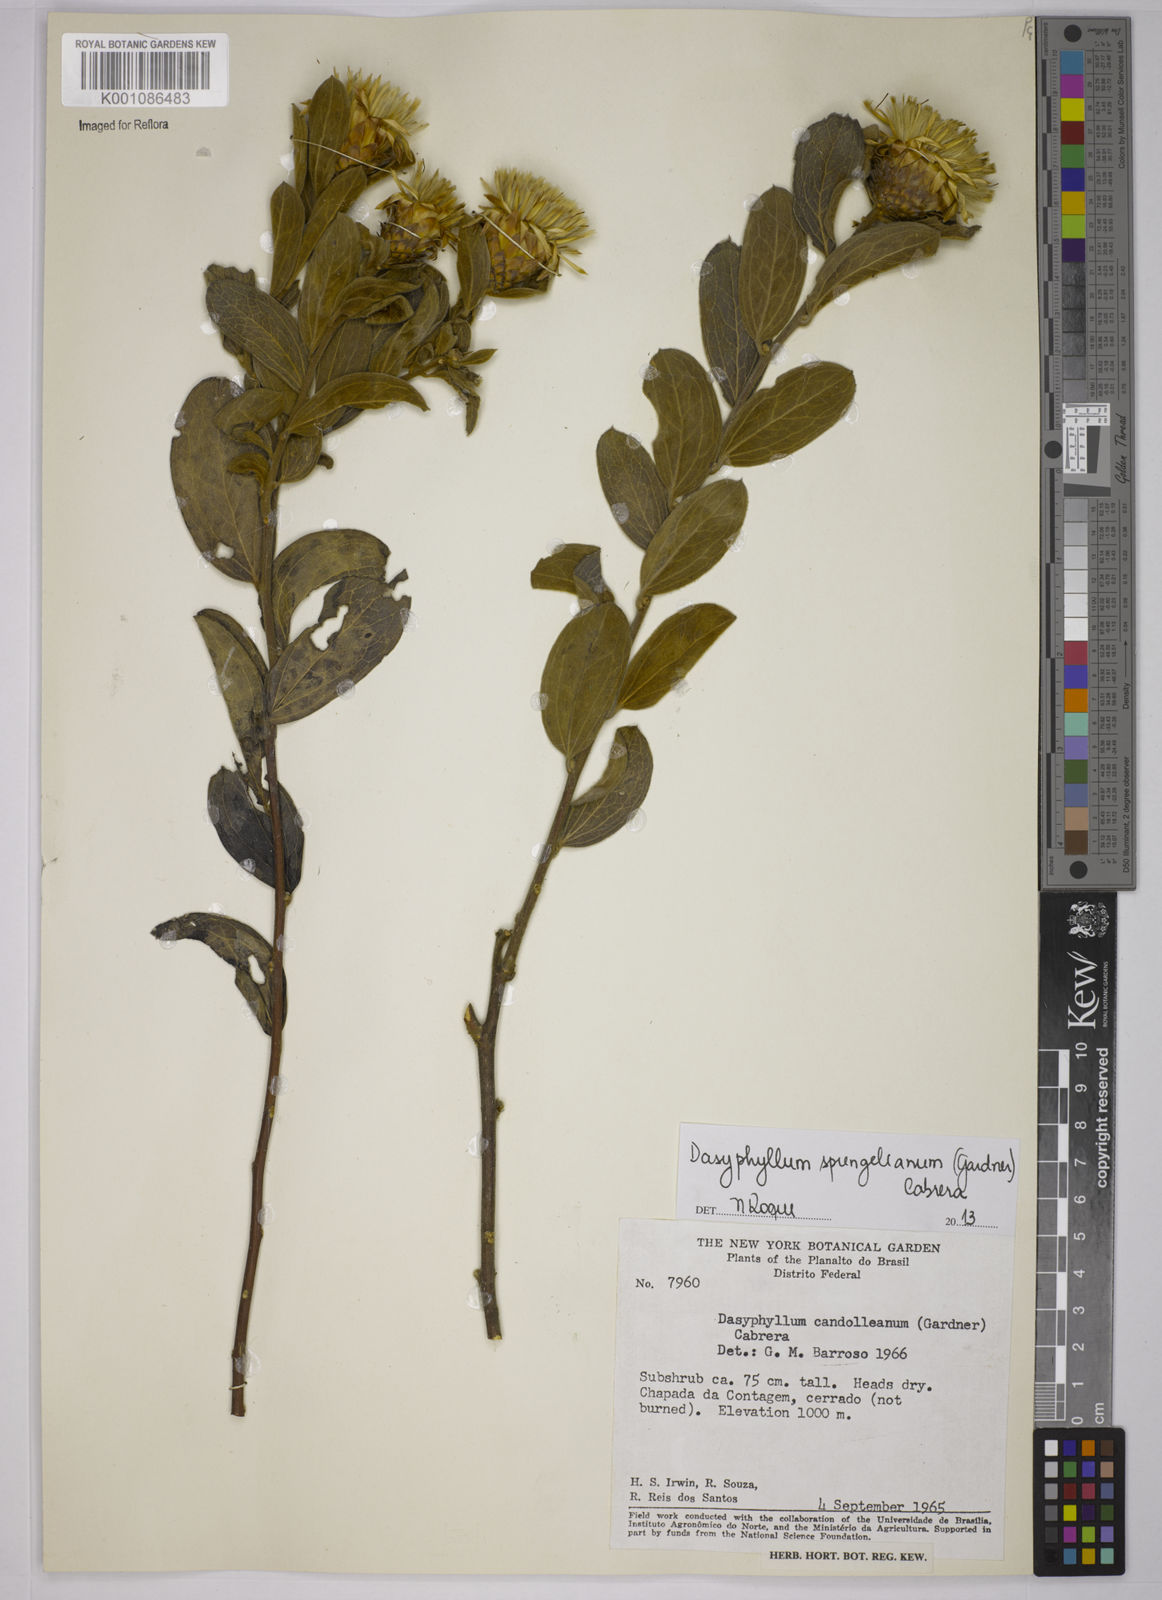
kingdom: Plantae
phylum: Tracheophyta
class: Magnoliopsida
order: Asterales
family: Asteraceae
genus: Dasyphyllum
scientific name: Dasyphyllum sprengelianum
